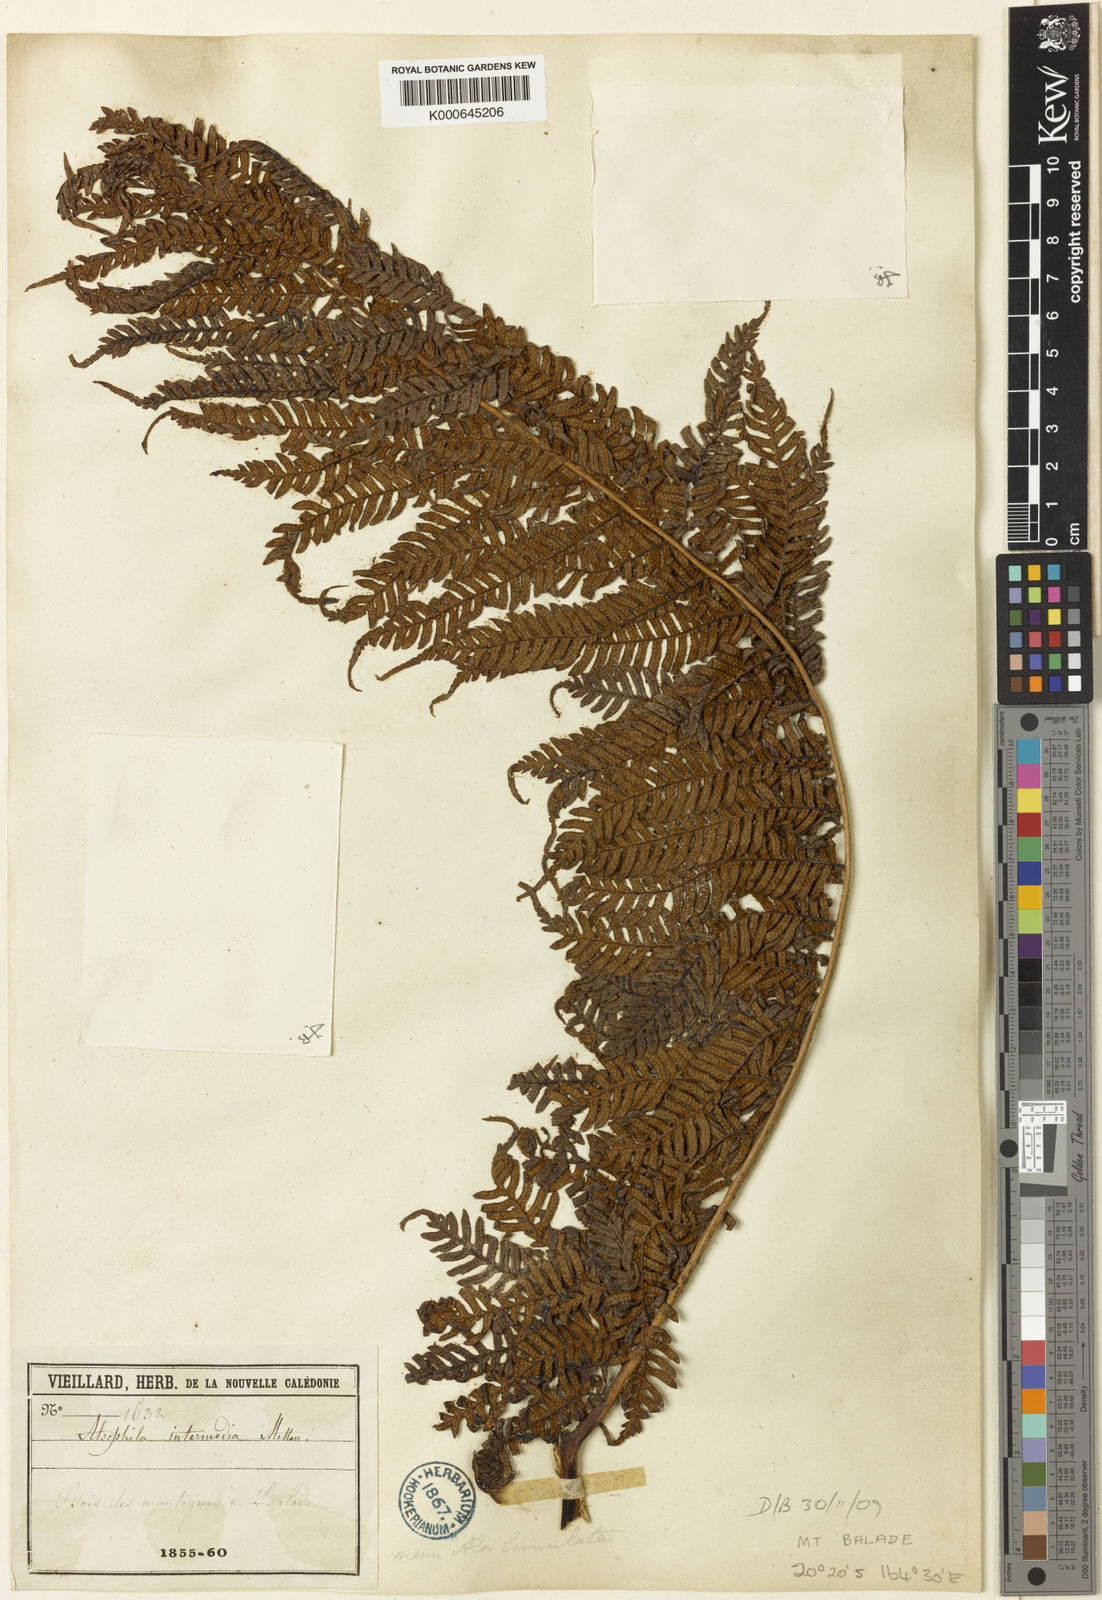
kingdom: Plantae
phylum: Tracheophyta
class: Polypodiopsida
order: Cyatheales
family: Cyatheaceae
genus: Sphaeropteris
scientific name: Sphaeropteris intermedia
